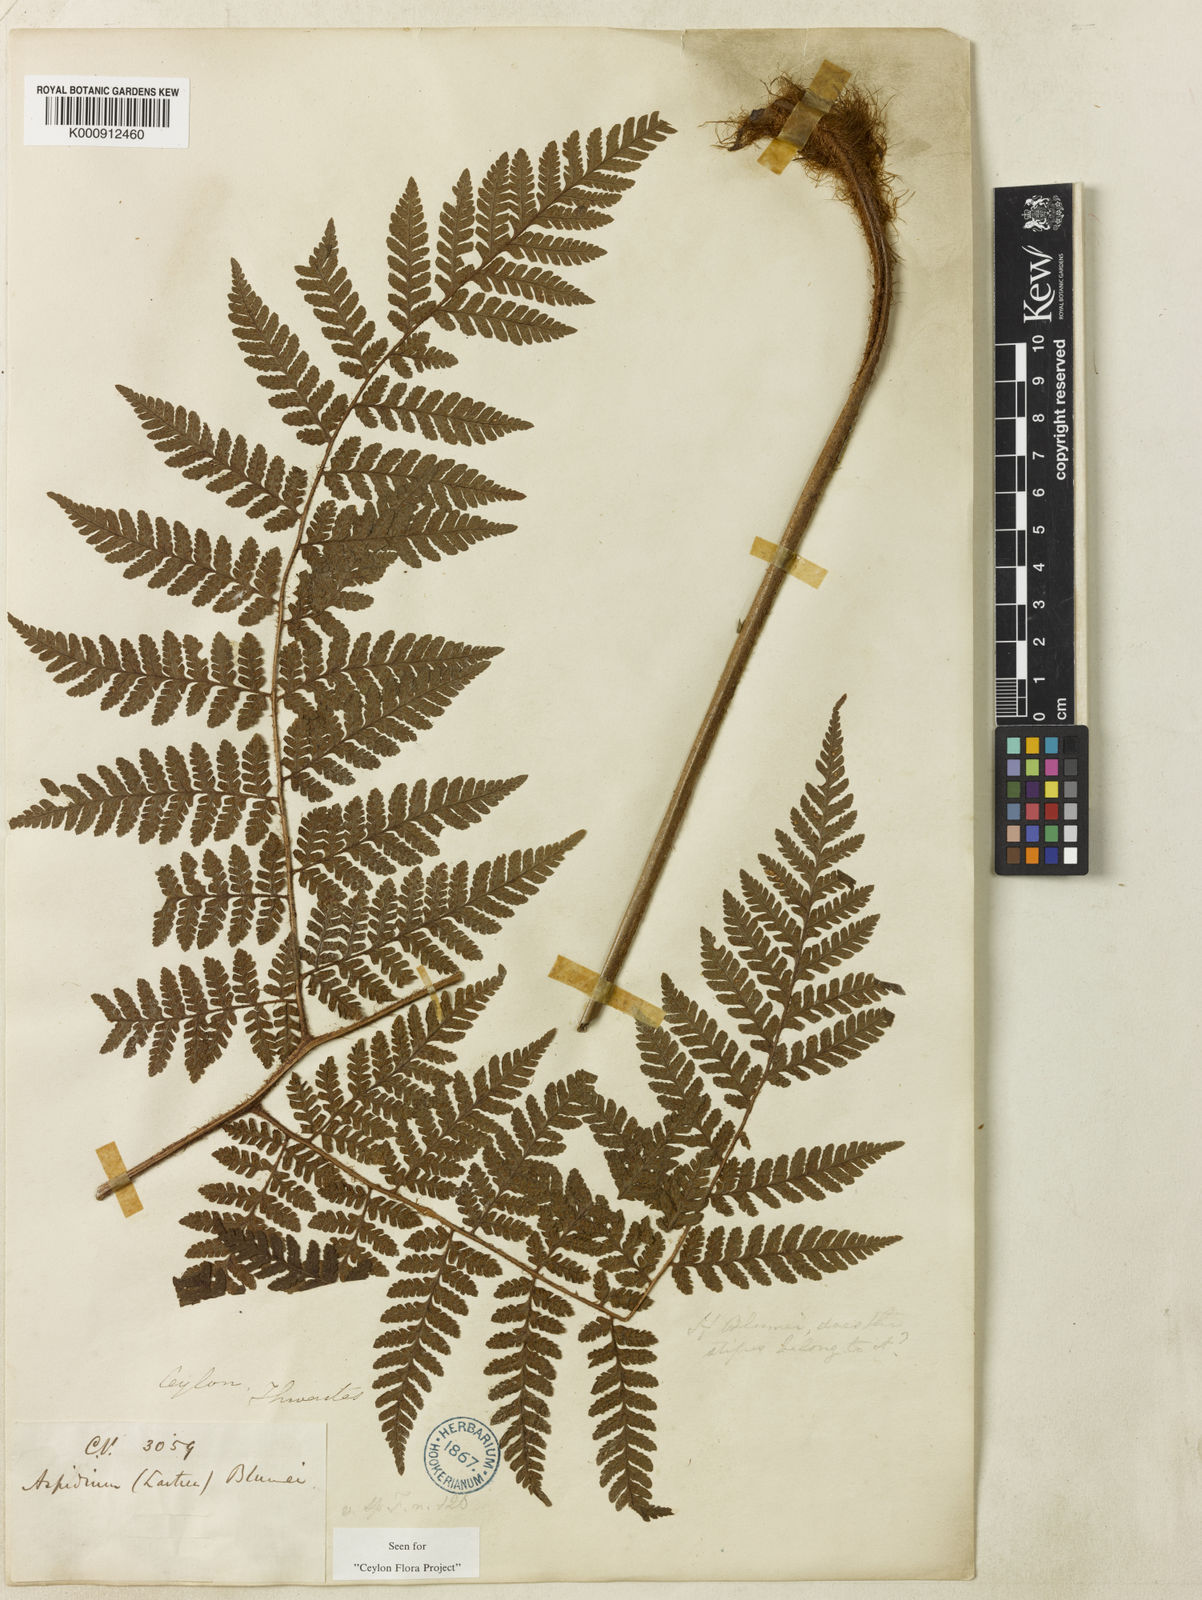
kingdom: Plantae
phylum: Tracheophyta
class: Polypodiopsida
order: Polypodiales
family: Dryopteridaceae
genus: Ctenitis
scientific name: Ctenitis thwaitesii
